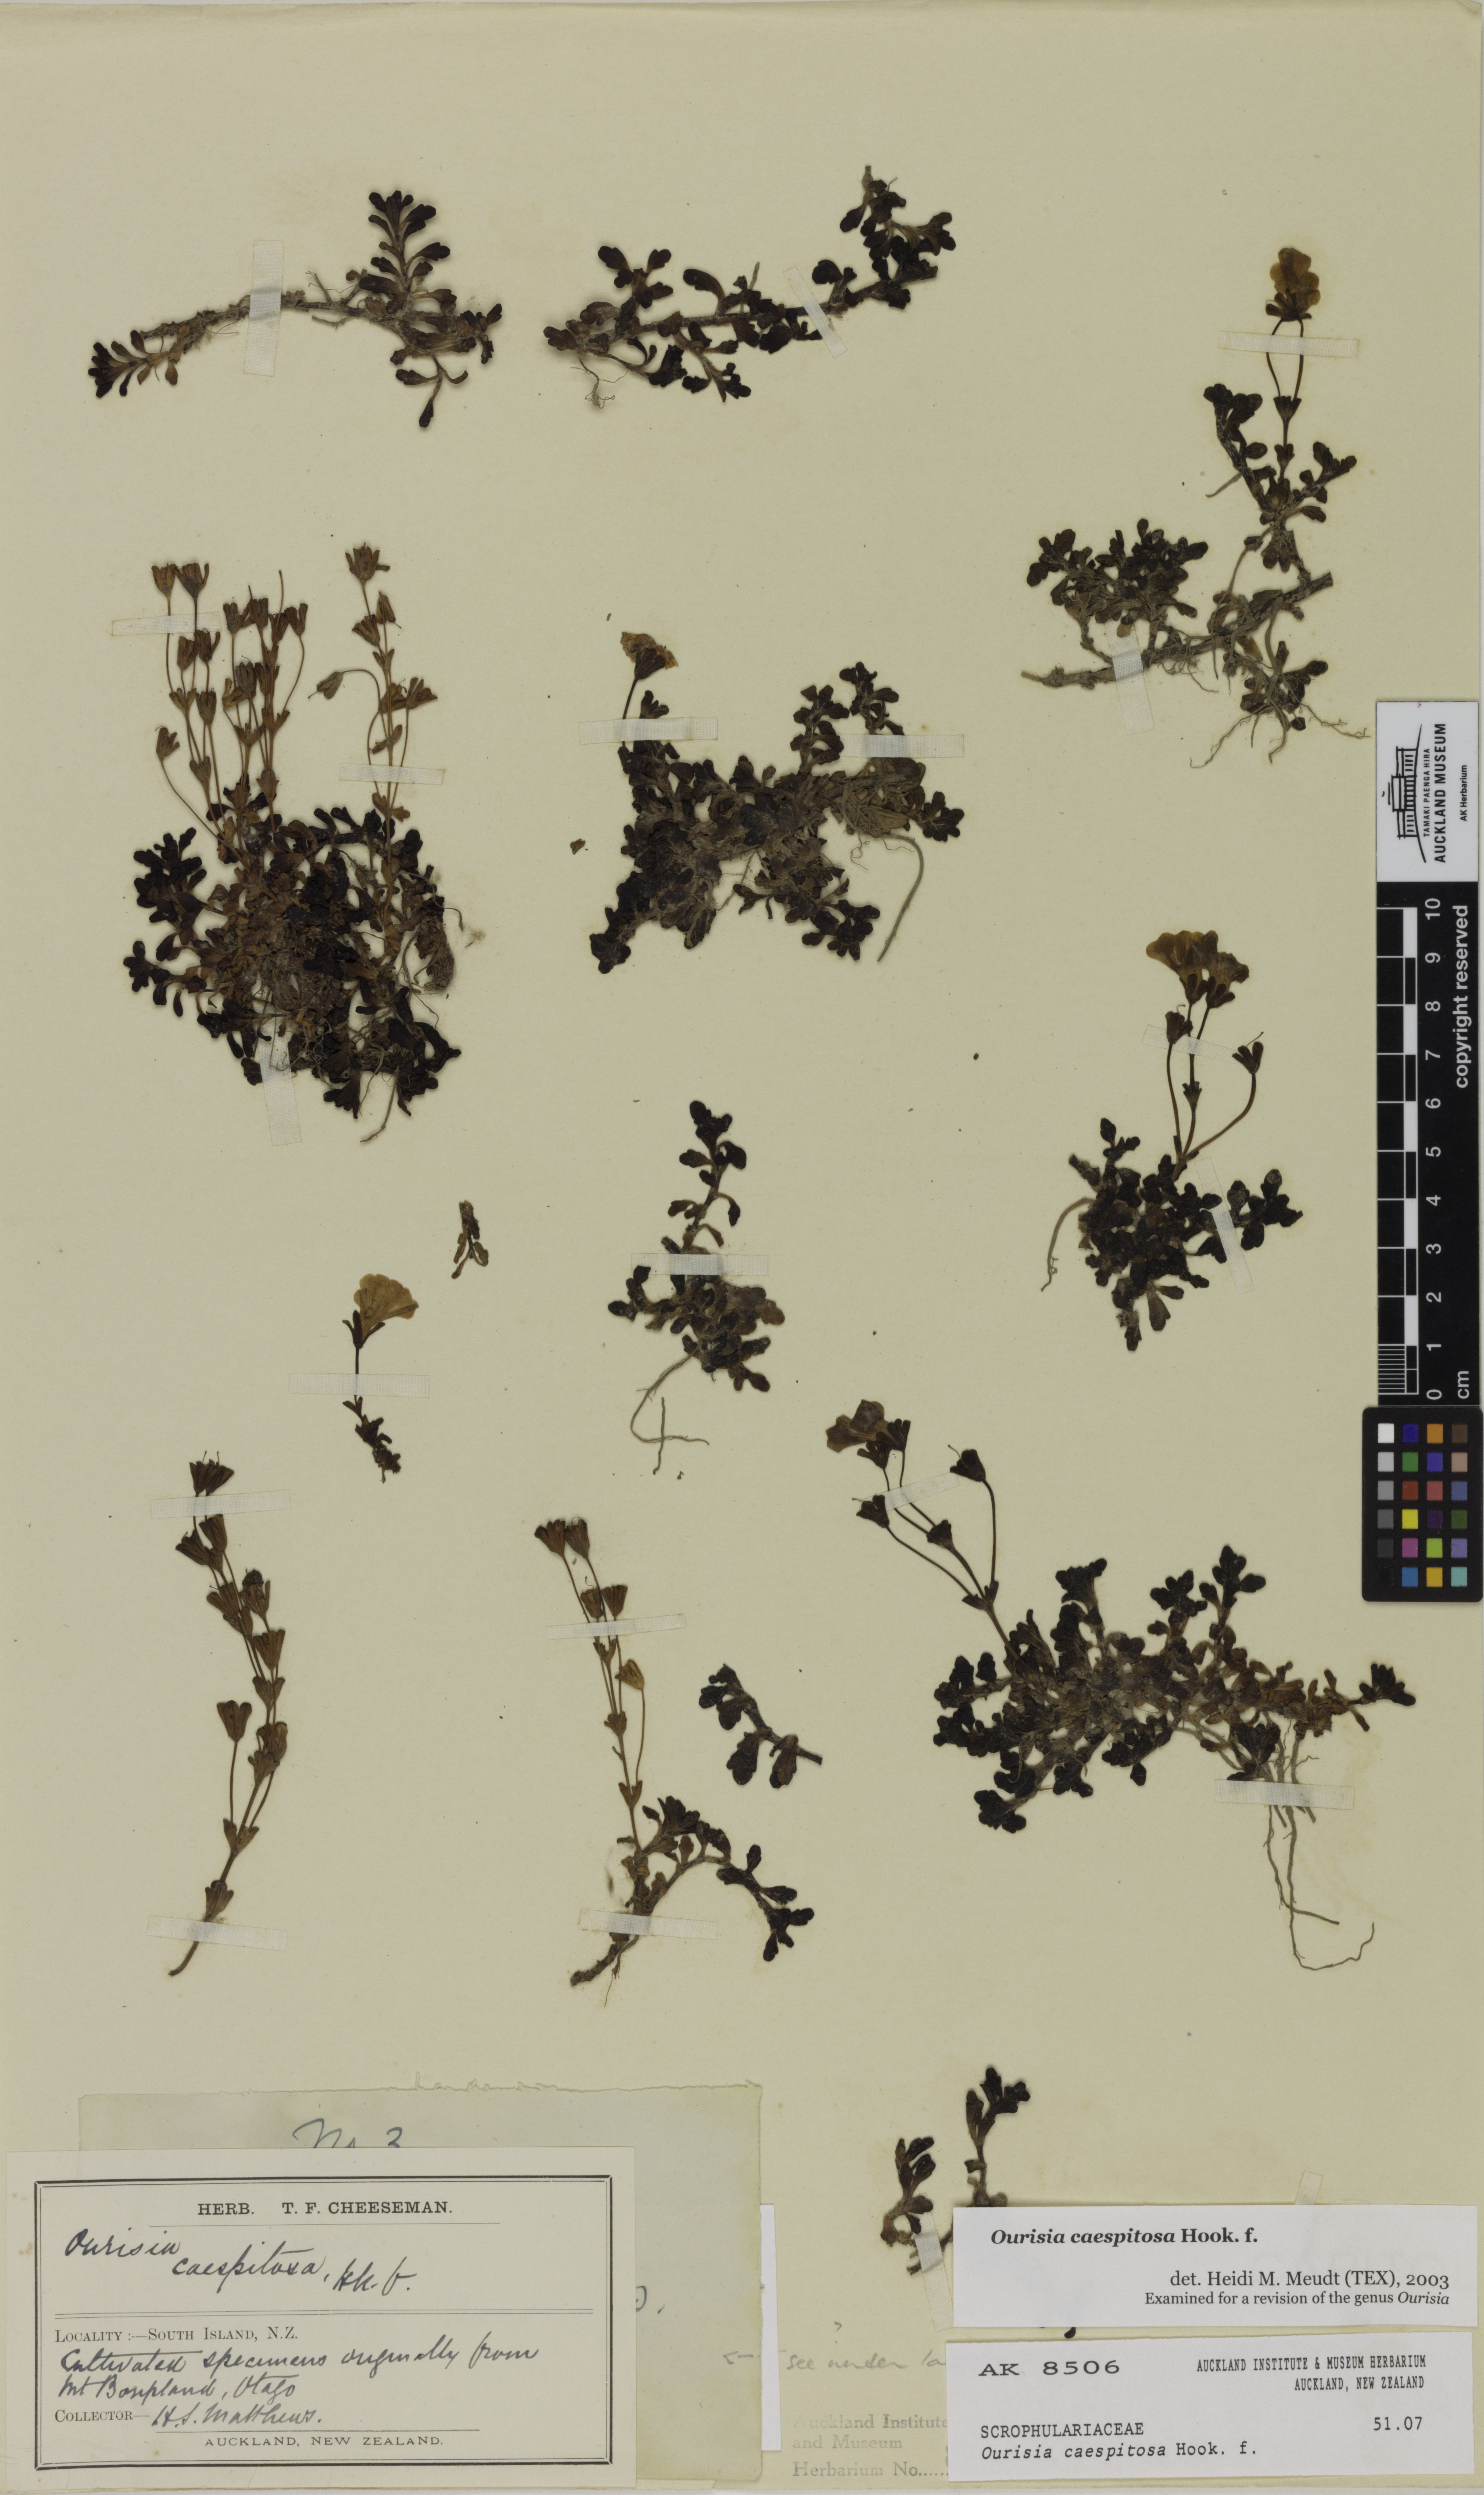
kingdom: Plantae
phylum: Tracheophyta
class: Magnoliopsida
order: Lamiales
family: Plantaginaceae
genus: Ourisia
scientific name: Ourisia caespitosa
